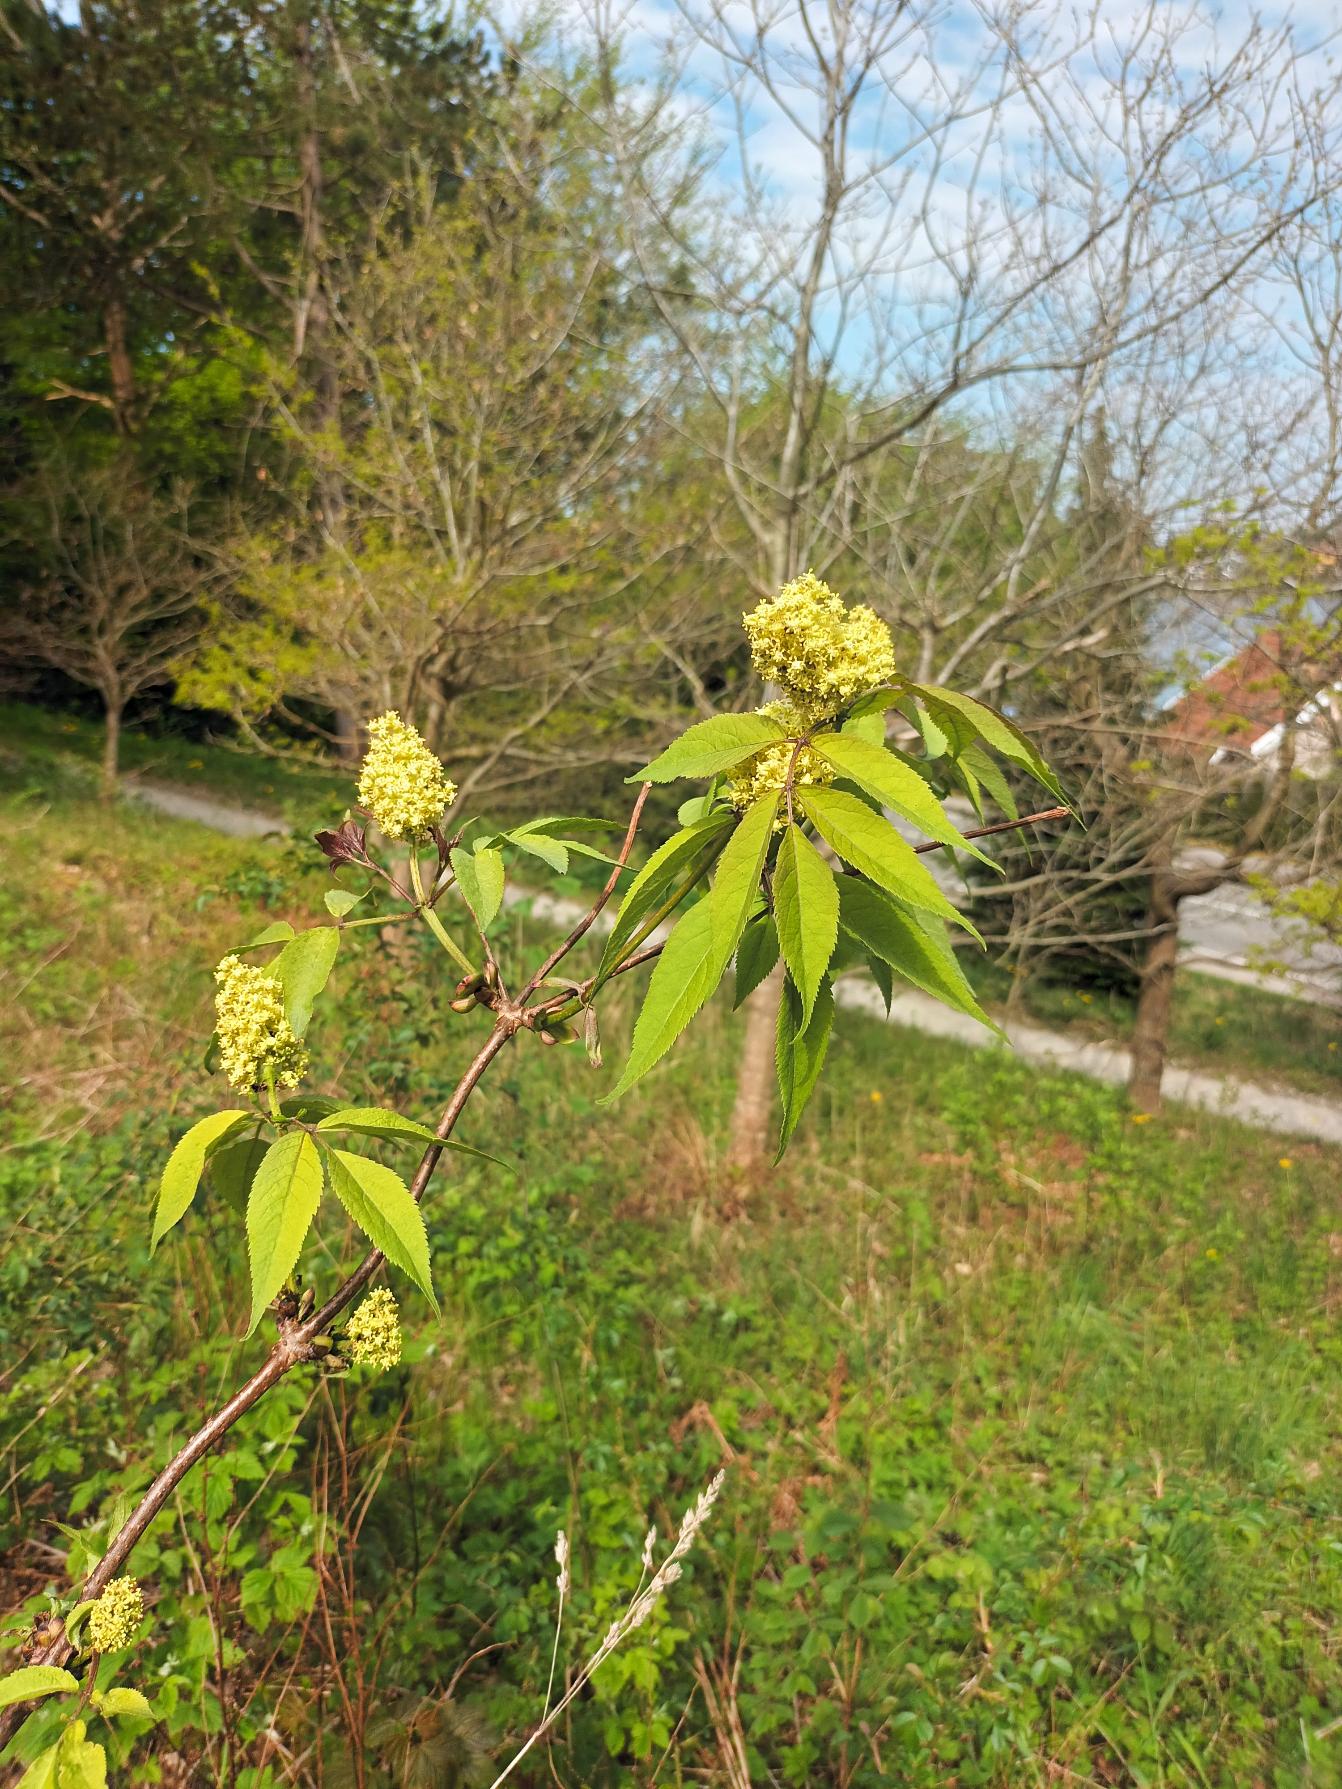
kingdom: Plantae
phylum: Tracheophyta
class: Magnoliopsida
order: Dipsacales
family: Viburnaceae
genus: Sambucus
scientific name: Sambucus racemosa
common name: Drue-hyld
